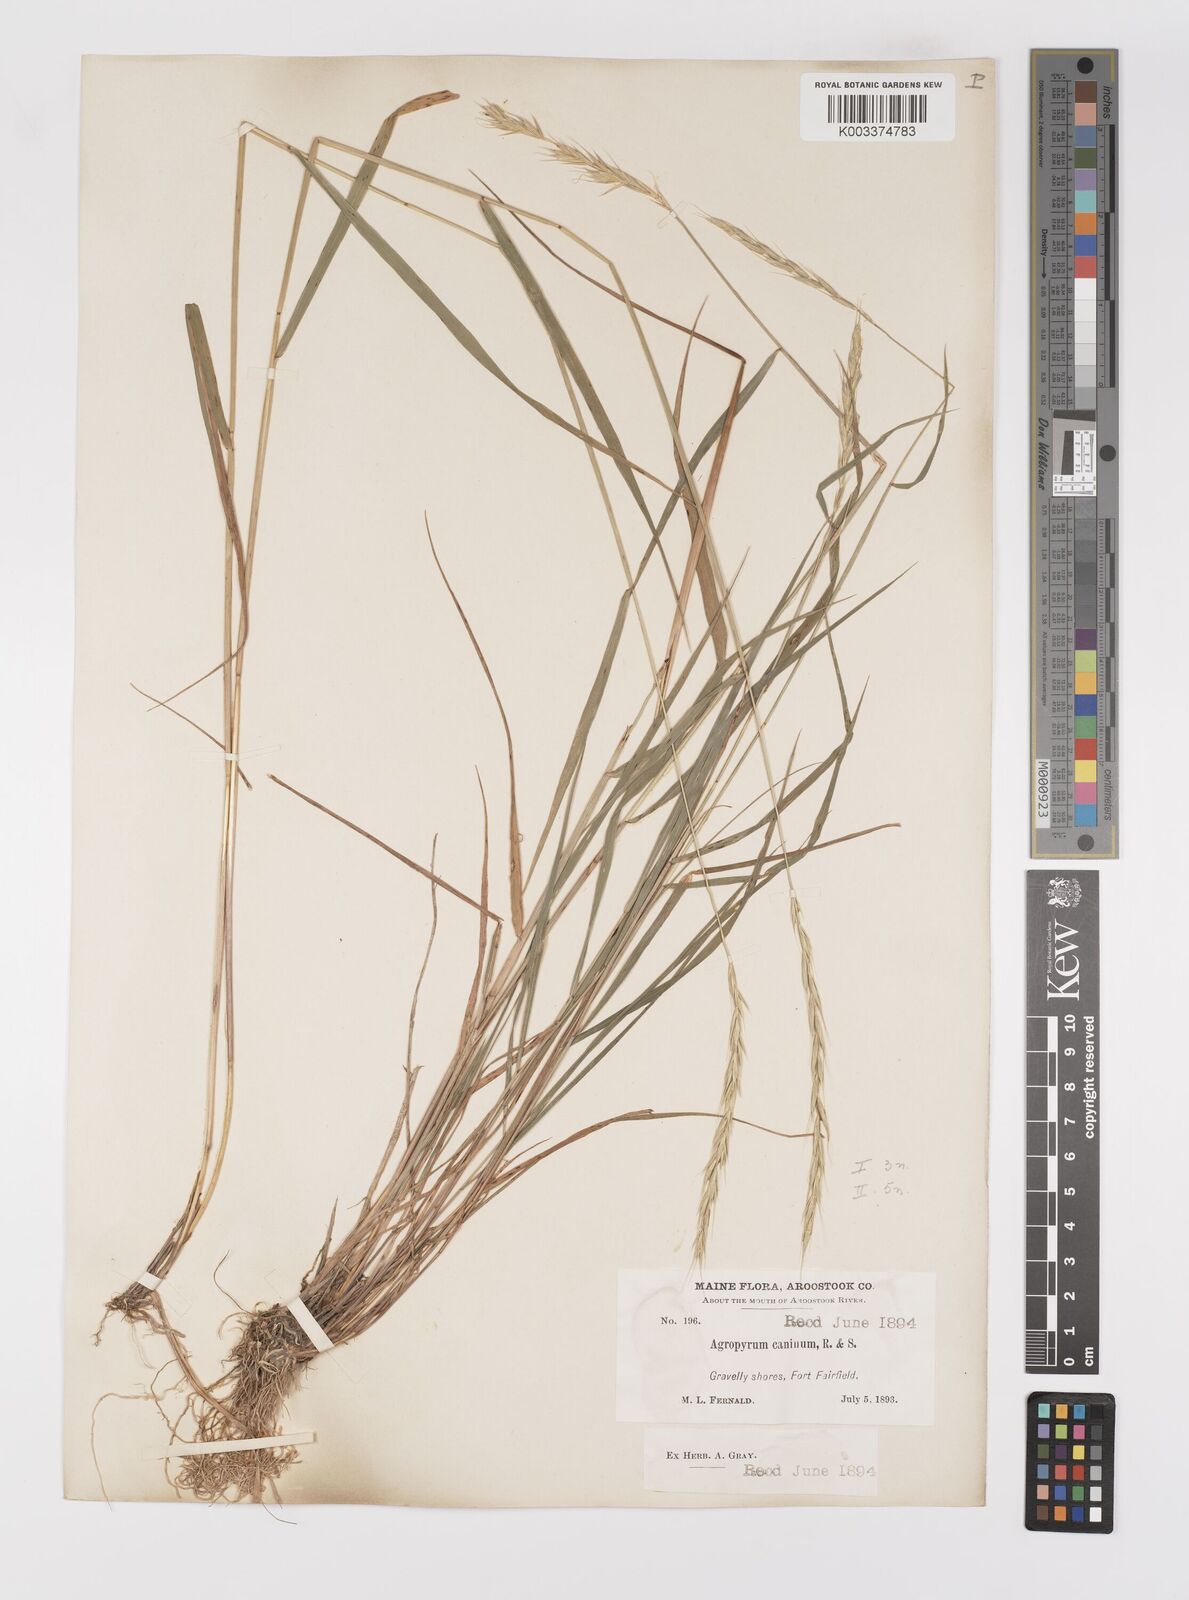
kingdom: Plantae
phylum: Tracheophyta
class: Liliopsida
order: Poales
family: Poaceae
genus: Elymus
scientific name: Elymus violaceus
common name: Arctic wheatgrass
